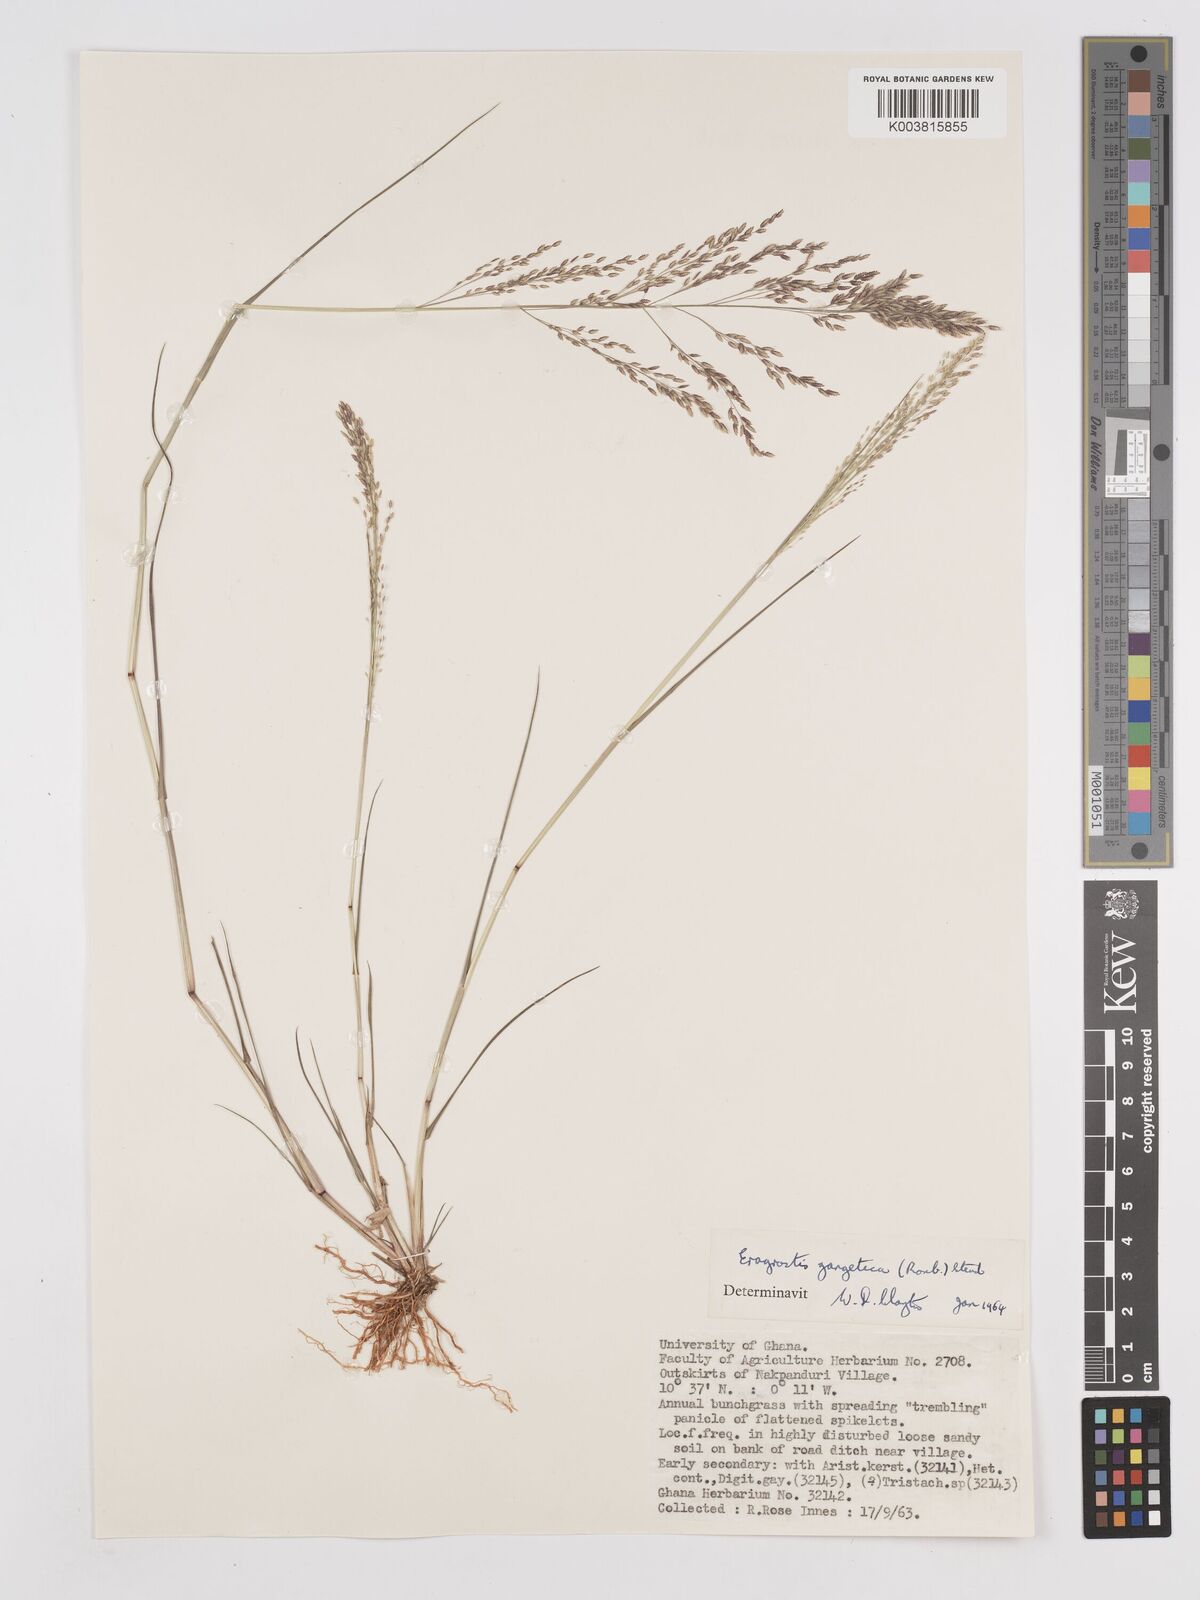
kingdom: Plantae
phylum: Tracheophyta
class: Liliopsida
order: Poales
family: Poaceae
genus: Eragrostis
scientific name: Eragrostis gangetica
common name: Slimflower lovegrass
